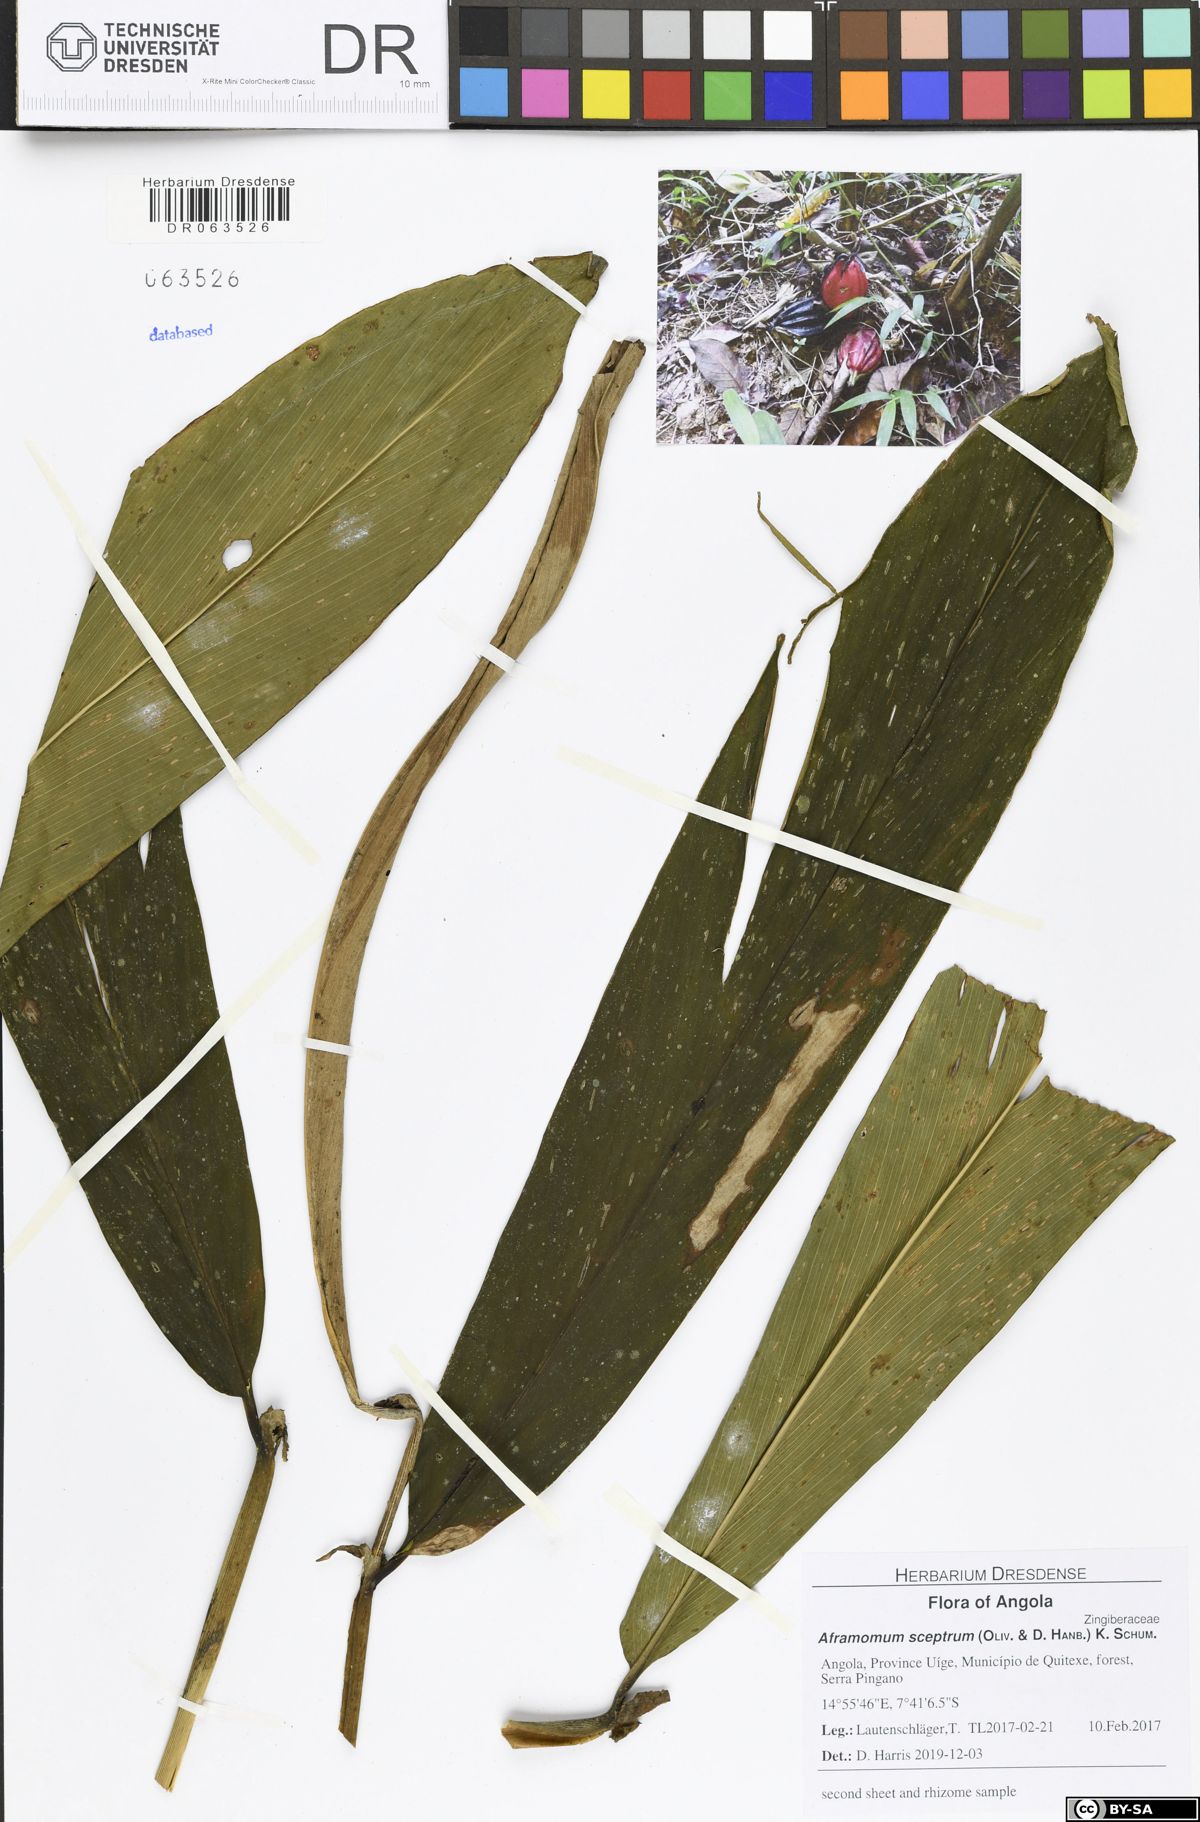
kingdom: Plantae
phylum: Tracheophyta
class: Liliopsida
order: Zingiberales
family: Zingiberaceae
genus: Aframomum
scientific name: Aframomum cereum
